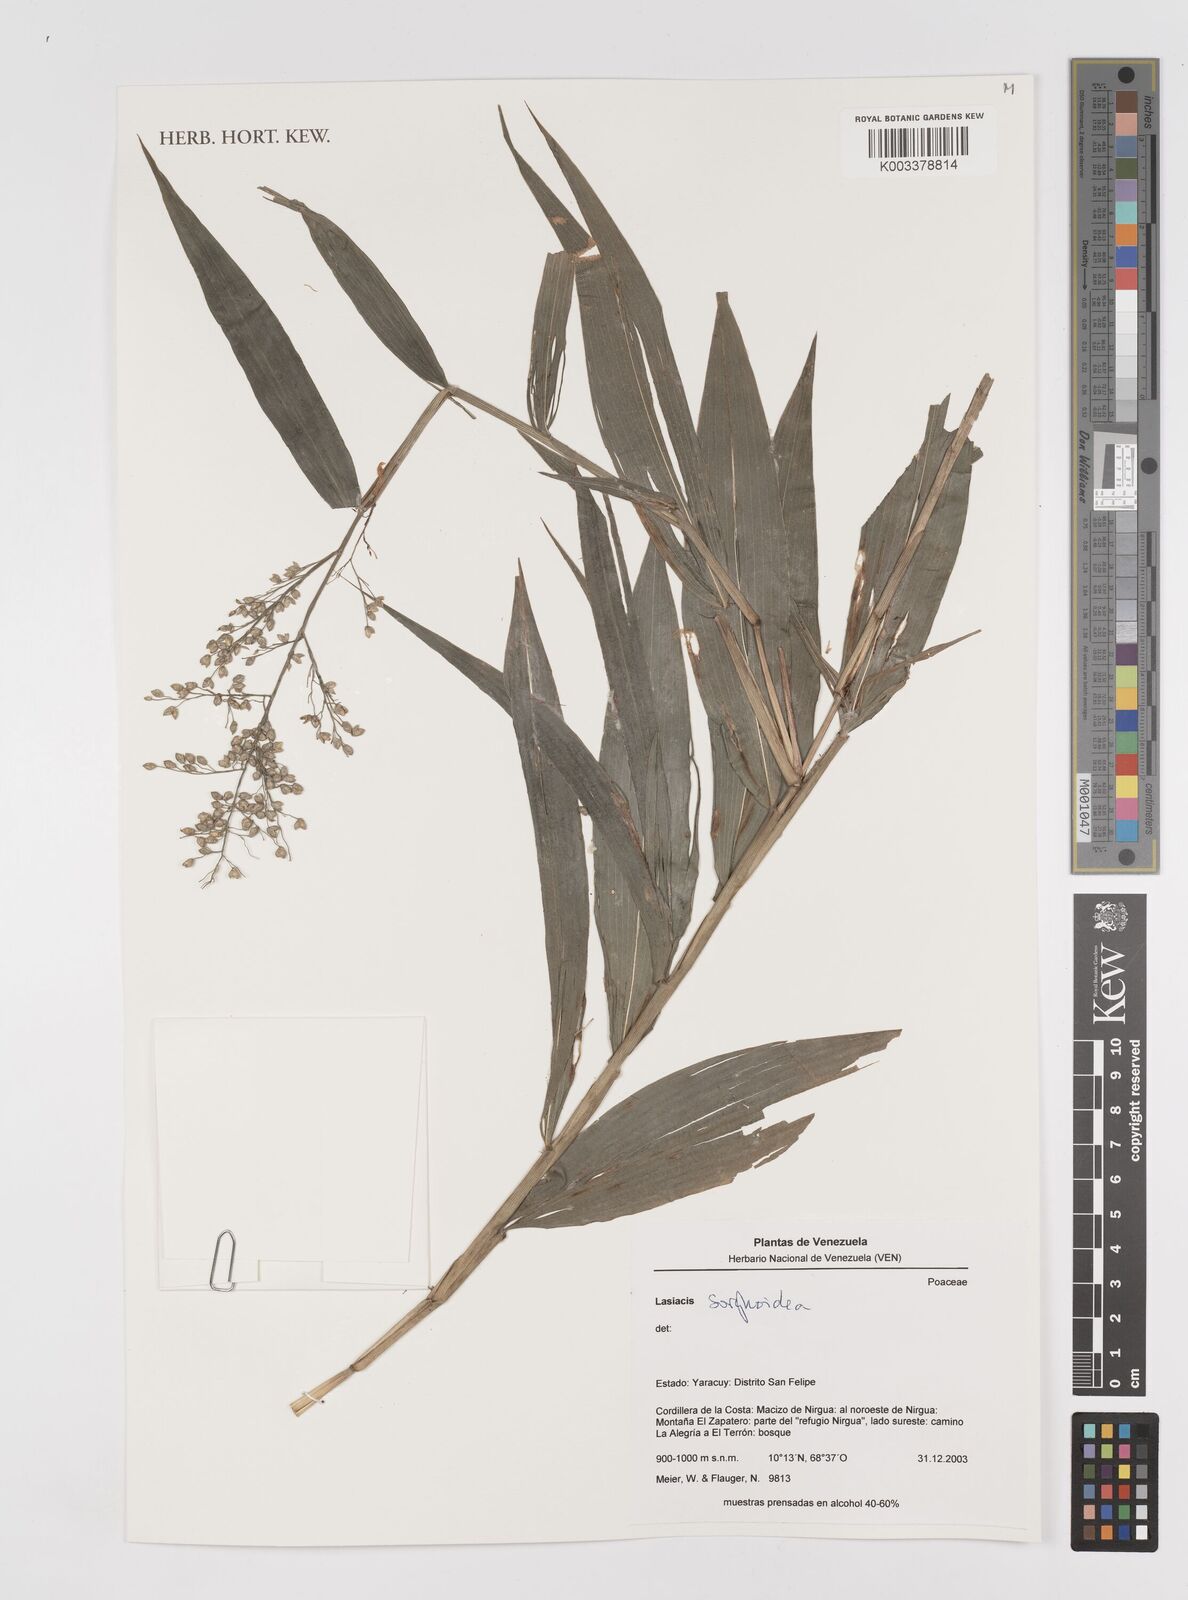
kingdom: Plantae
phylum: Tracheophyta
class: Liliopsida
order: Poales
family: Poaceae
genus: Lasiacis
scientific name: Lasiacis maculata
